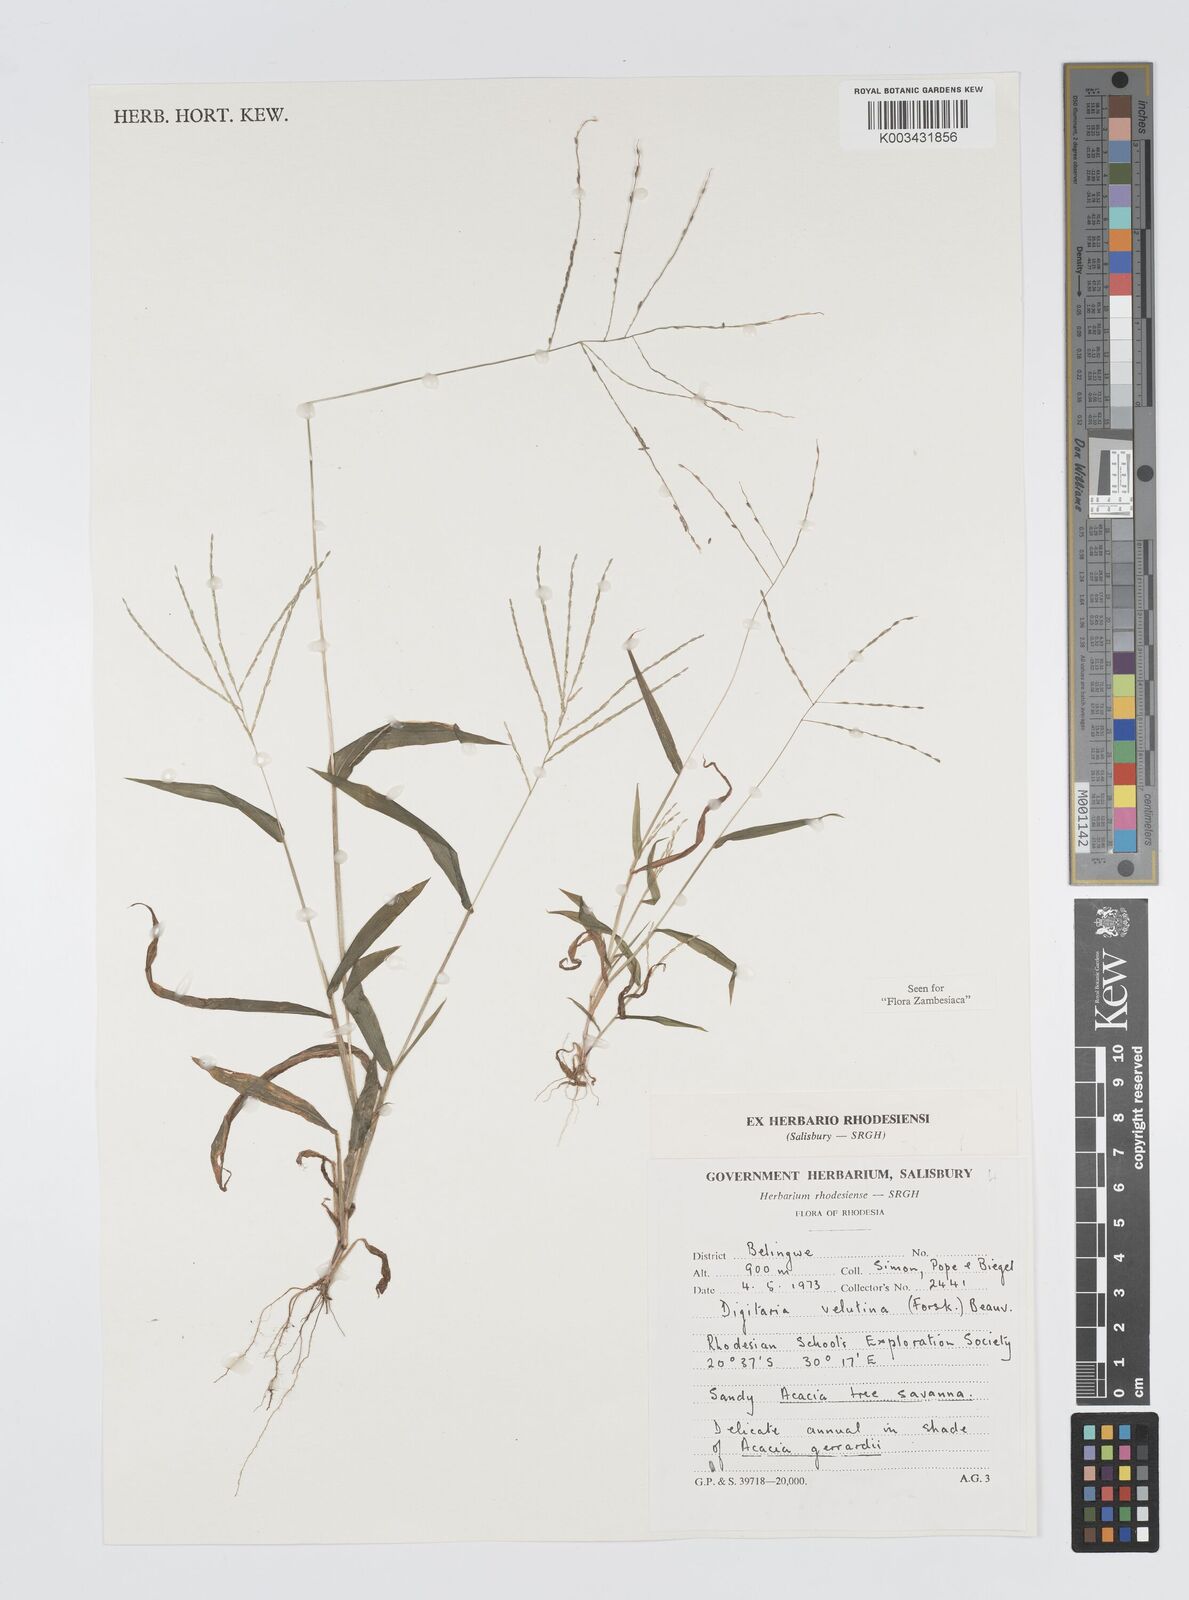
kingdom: Plantae
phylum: Tracheophyta
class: Liliopsida
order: Poales
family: Poaceae
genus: Digitaria
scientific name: Digitaria velutina
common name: Long-plume finger grass
